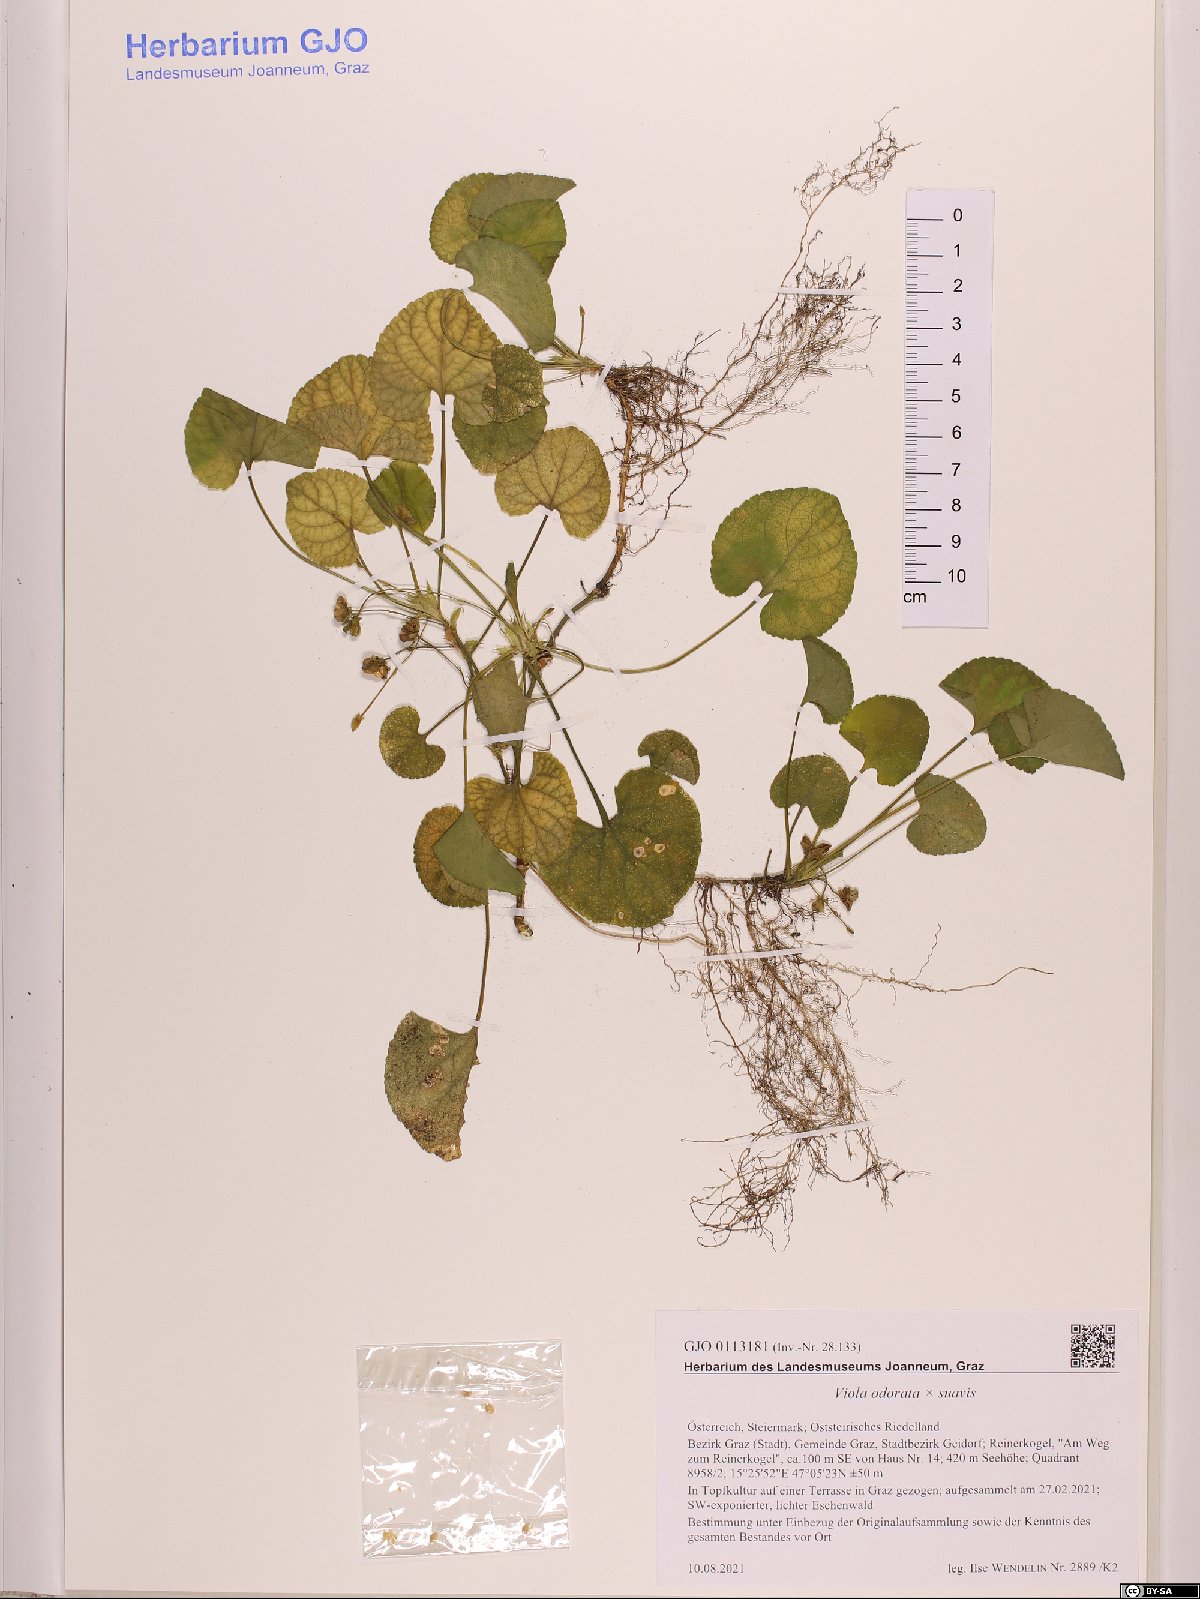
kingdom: Plantae
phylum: Tracheophyta
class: Magnoliopsida
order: Malpighiales
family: Violaceae
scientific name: Violaceae
